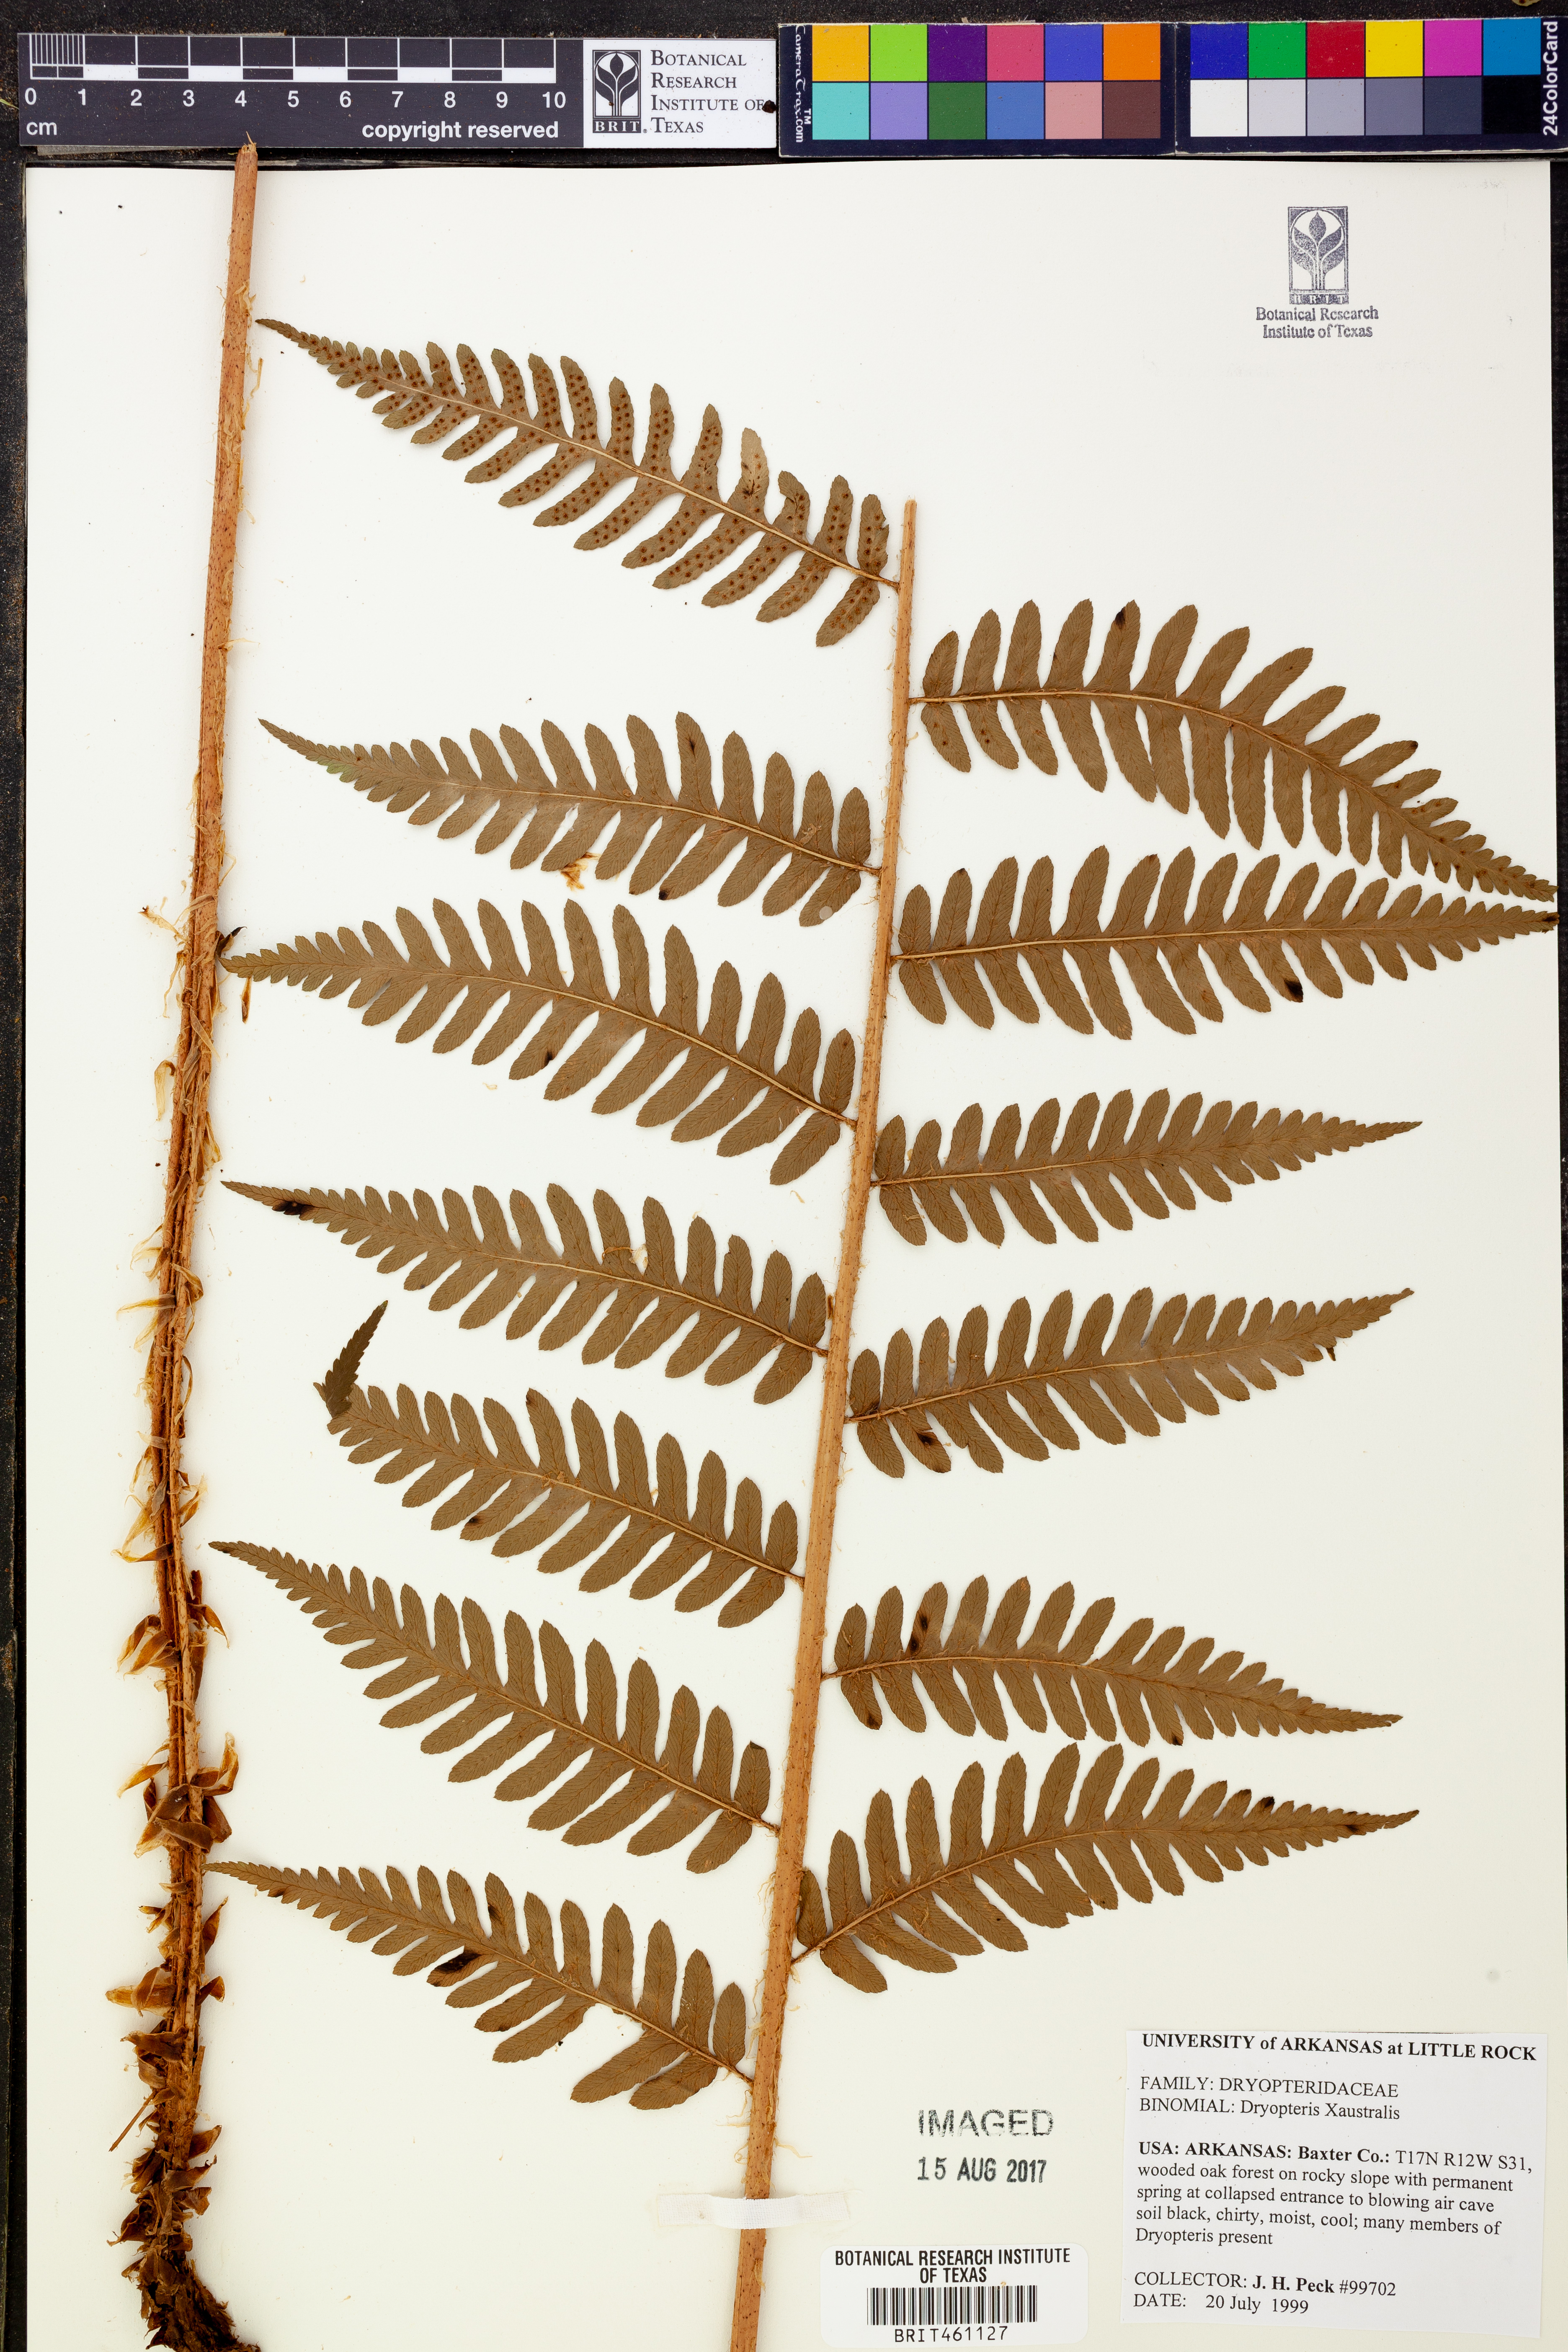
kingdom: Plantae
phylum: Tracheophyta
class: Polypodiopsida
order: Polypodiales
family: Dryopteridaceae
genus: Dryopteris
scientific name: Dryopteris
